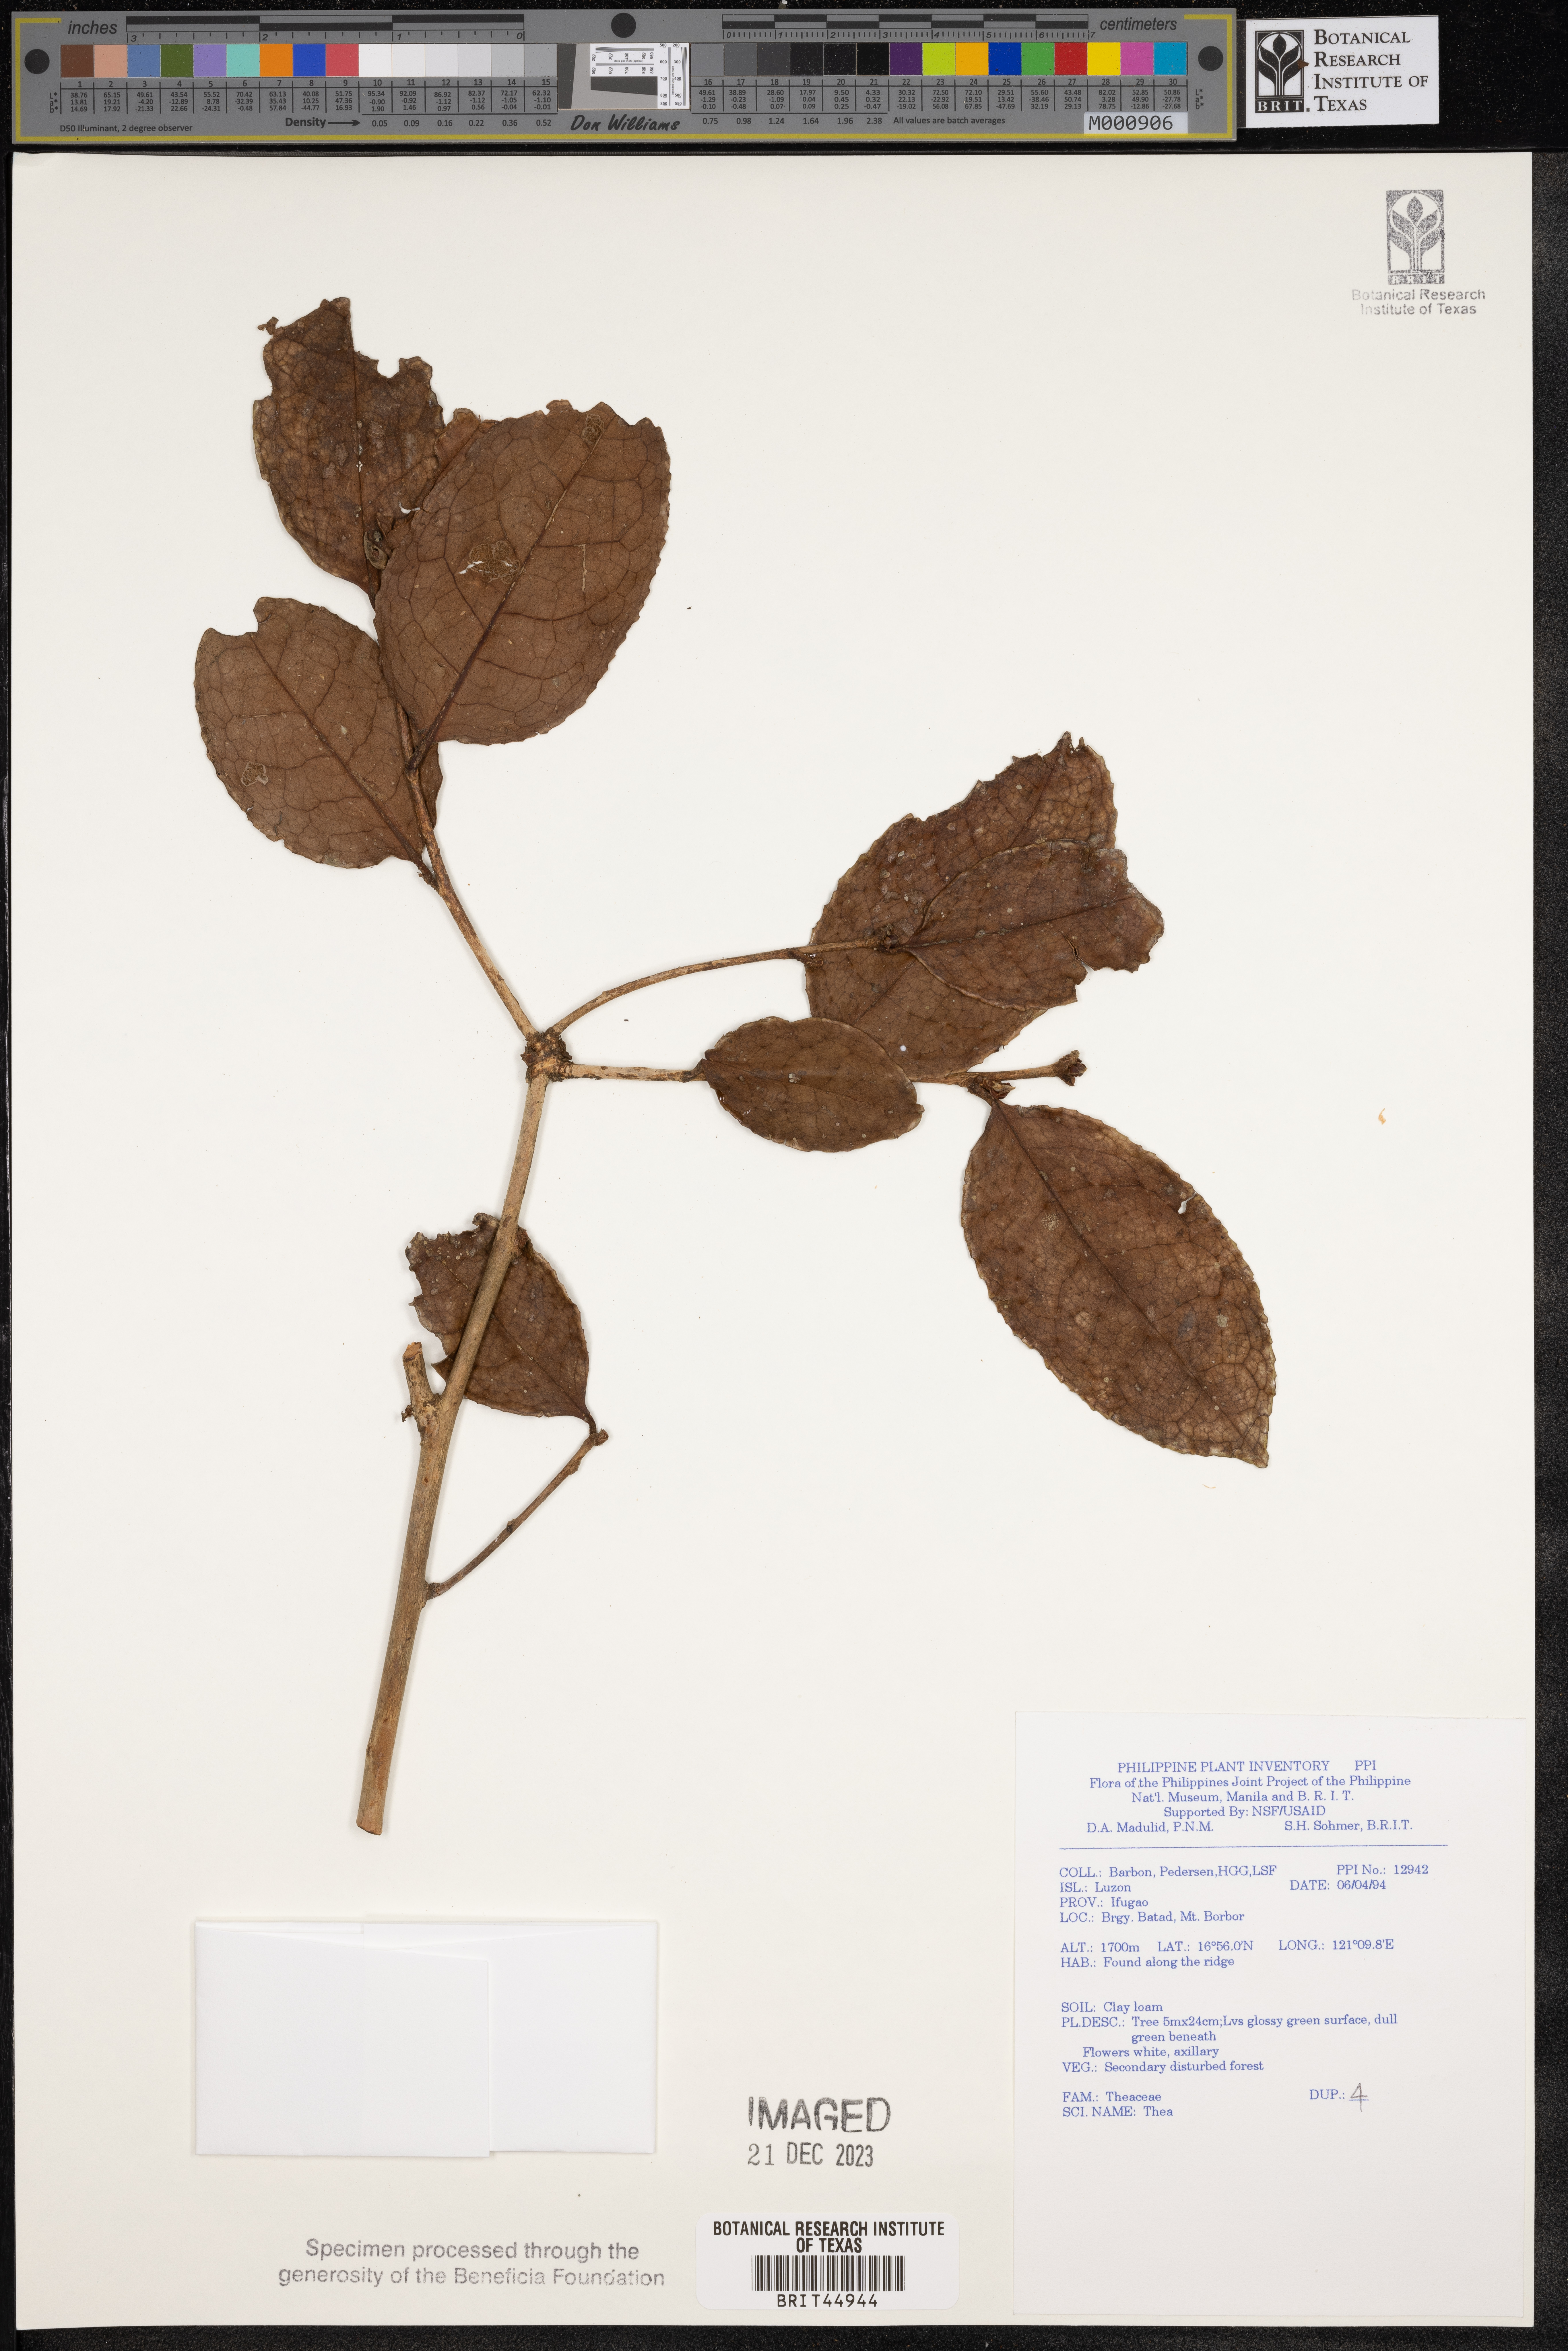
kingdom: Plantae
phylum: Tracheophyta
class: Magnoliopsida
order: Ericales
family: Theaceae
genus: Camellia
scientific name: Camellia
